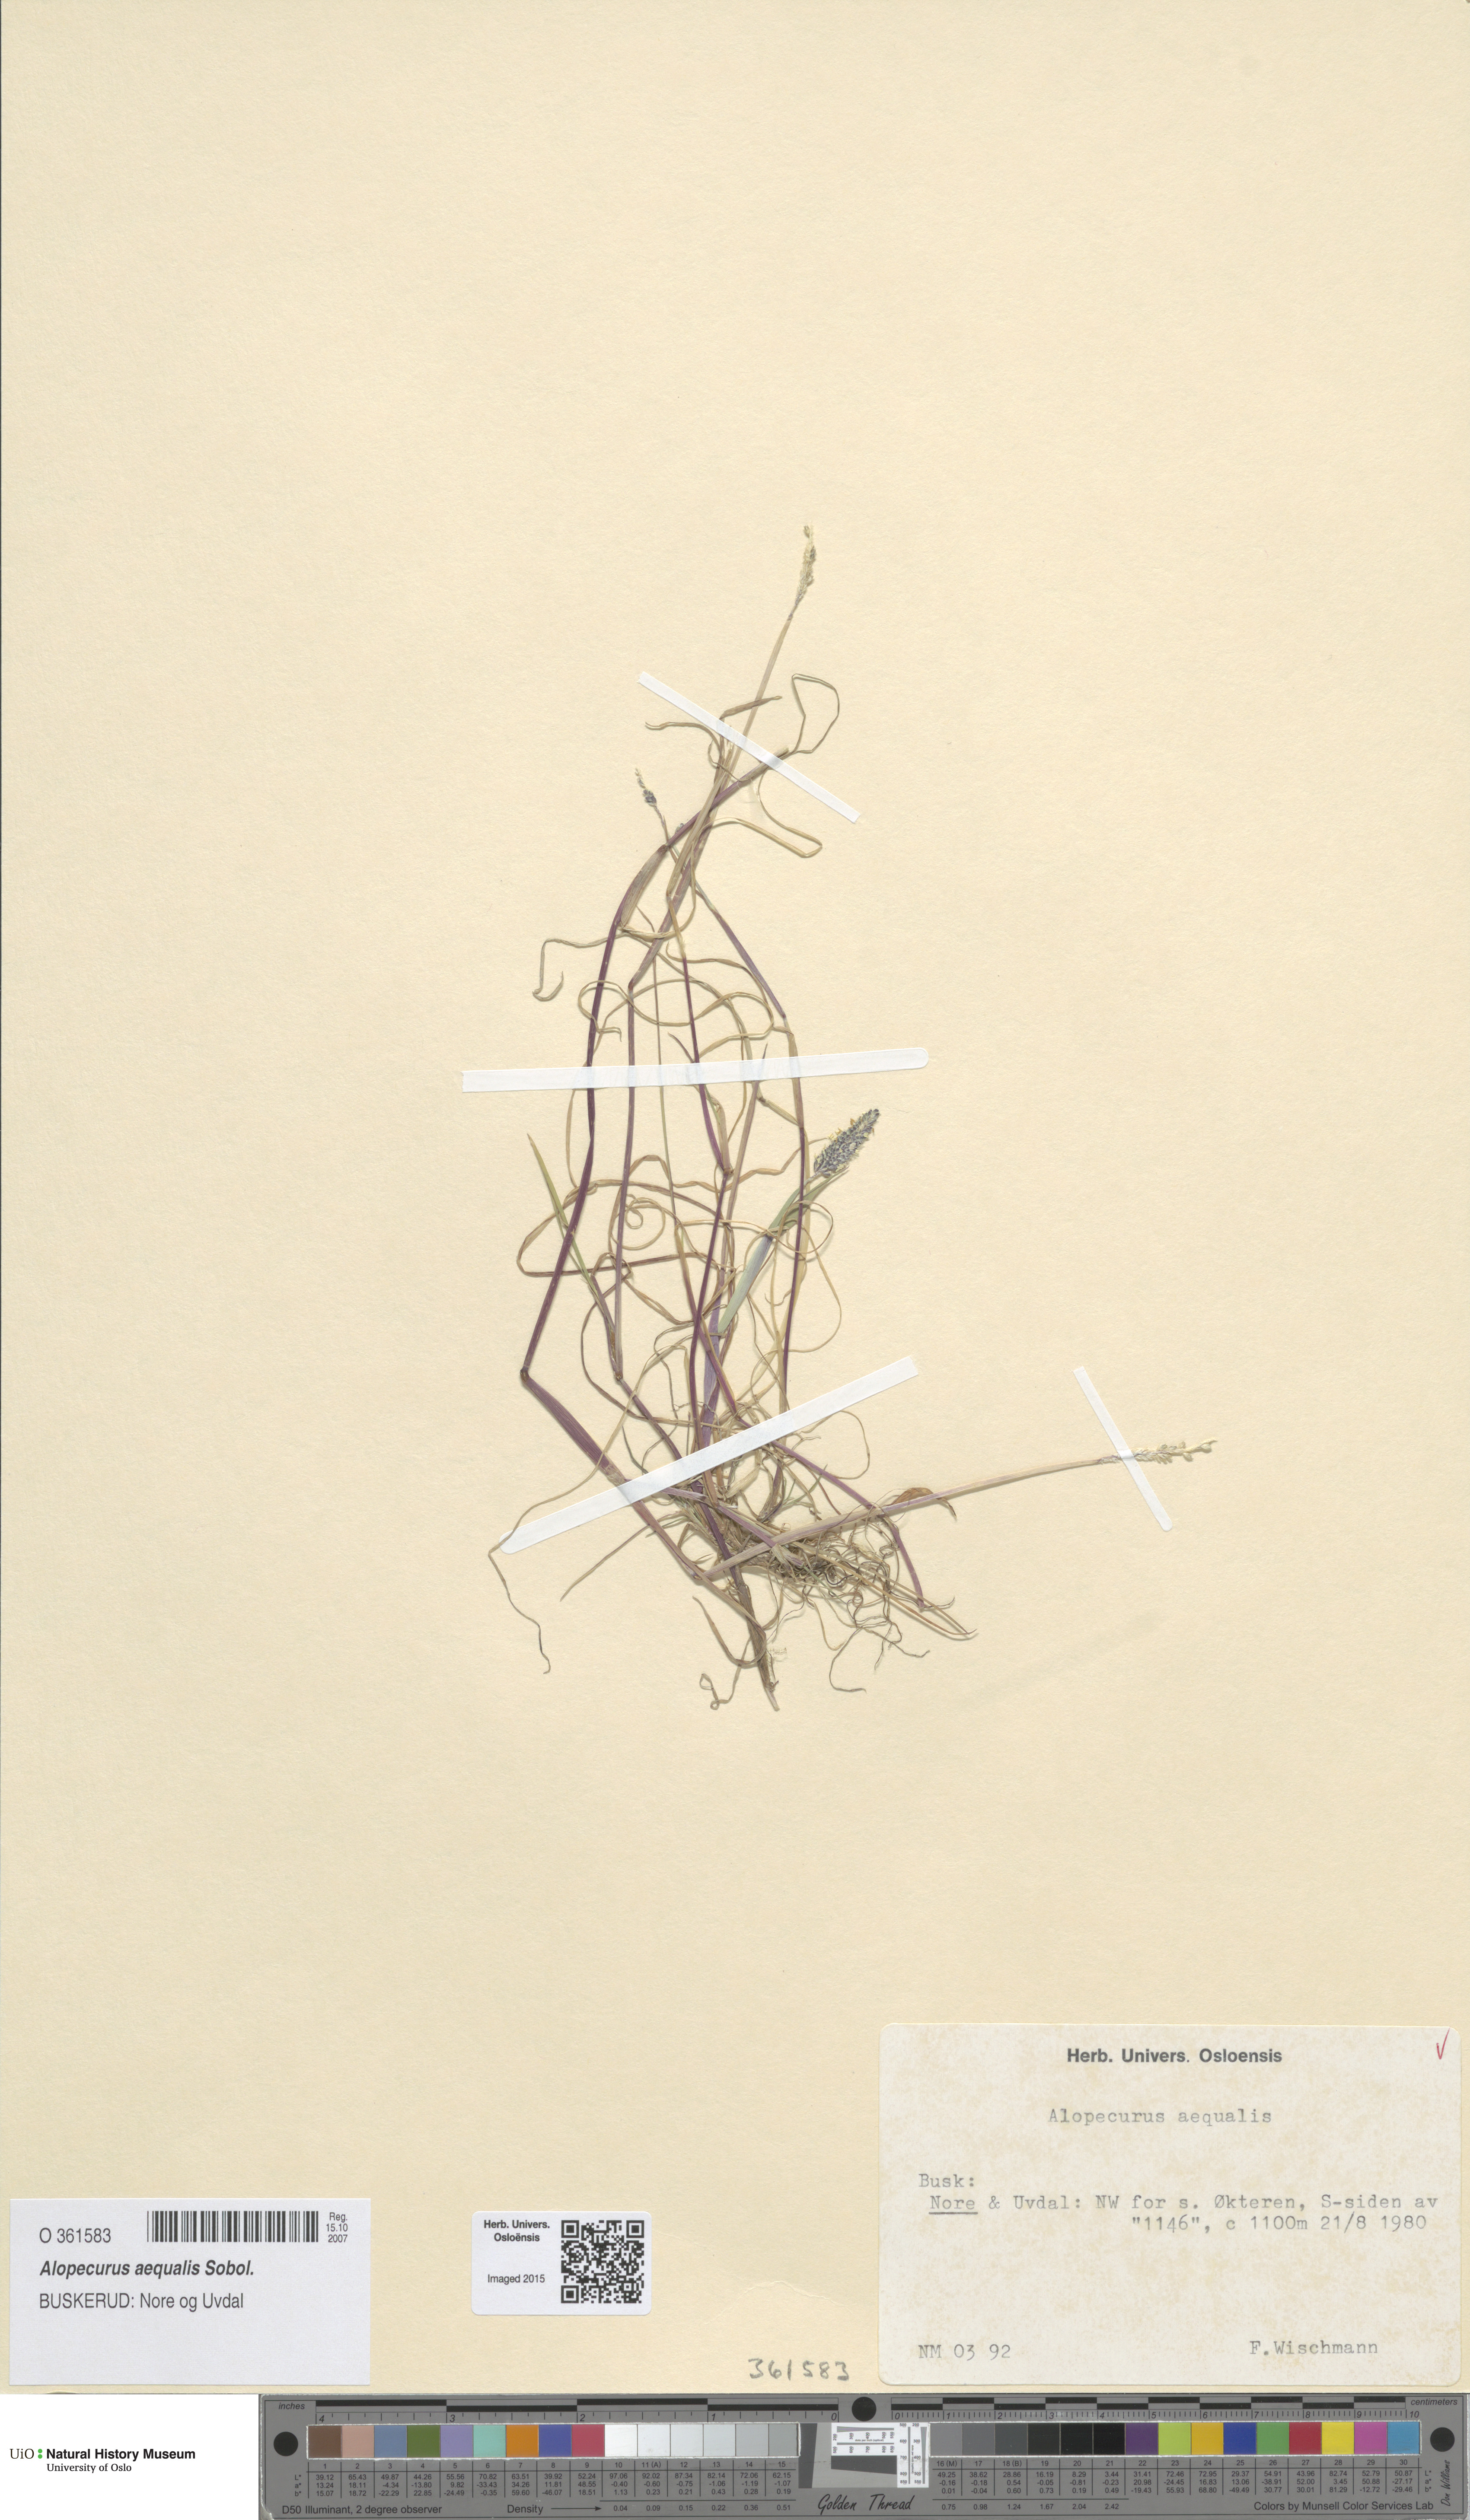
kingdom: Plantae
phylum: Tracheophyta
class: Liliopsida
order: Poales
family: Poaceae
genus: Alopecurus
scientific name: Alopecurus aequalis
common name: Orange foxtail
